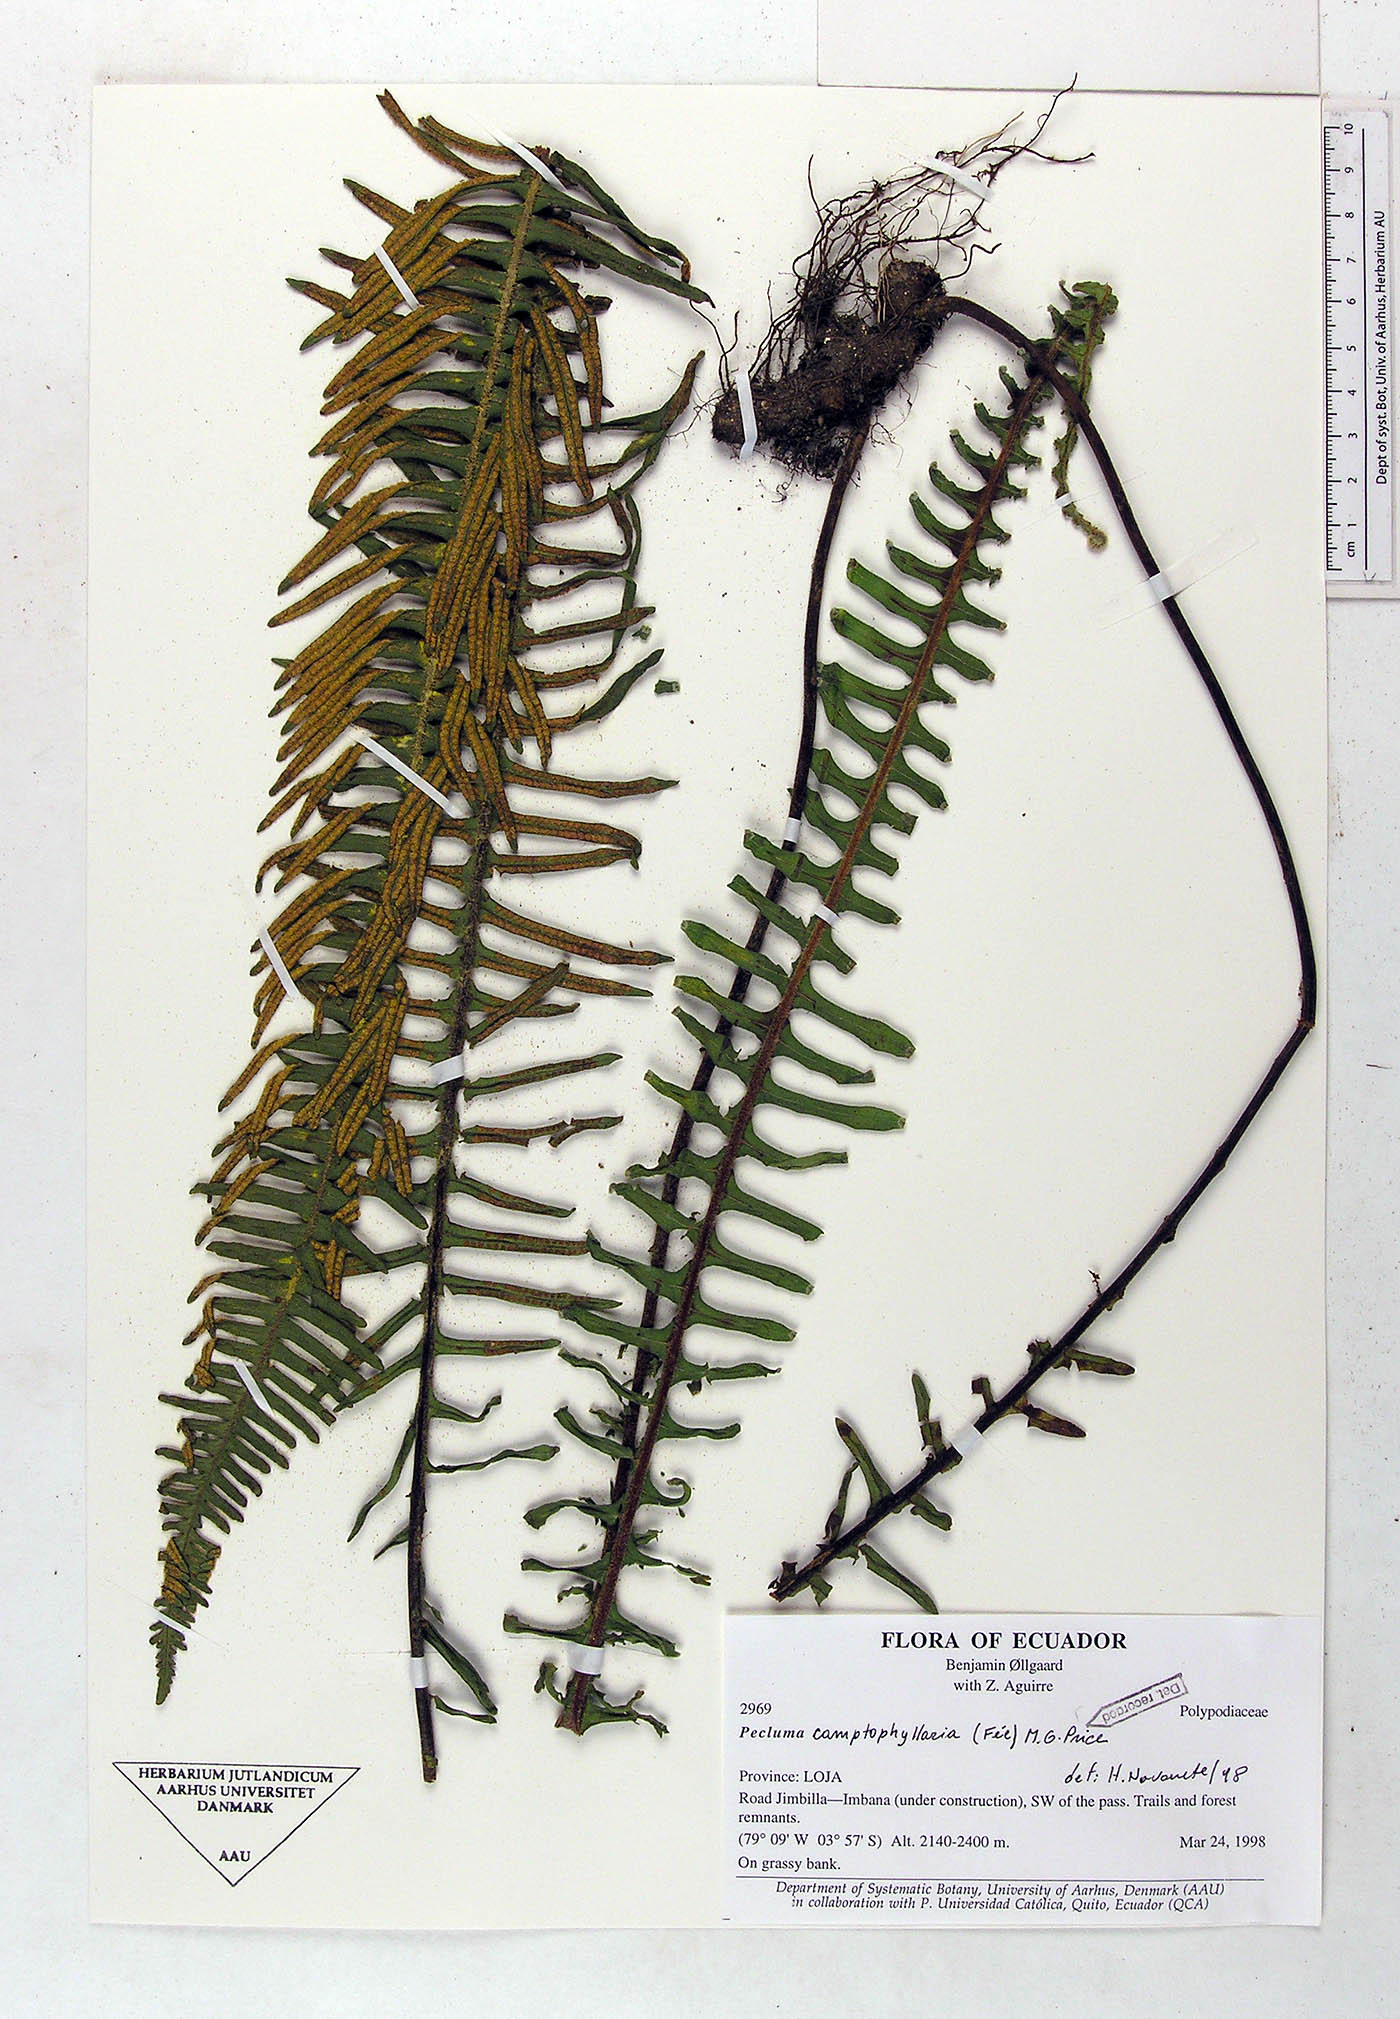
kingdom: Plantae
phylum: Tracheophyta
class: Polypodiopsida
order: Polypodiales
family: Polypodiaceae
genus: Pecluma
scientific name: Pecluma camptophyllaria
